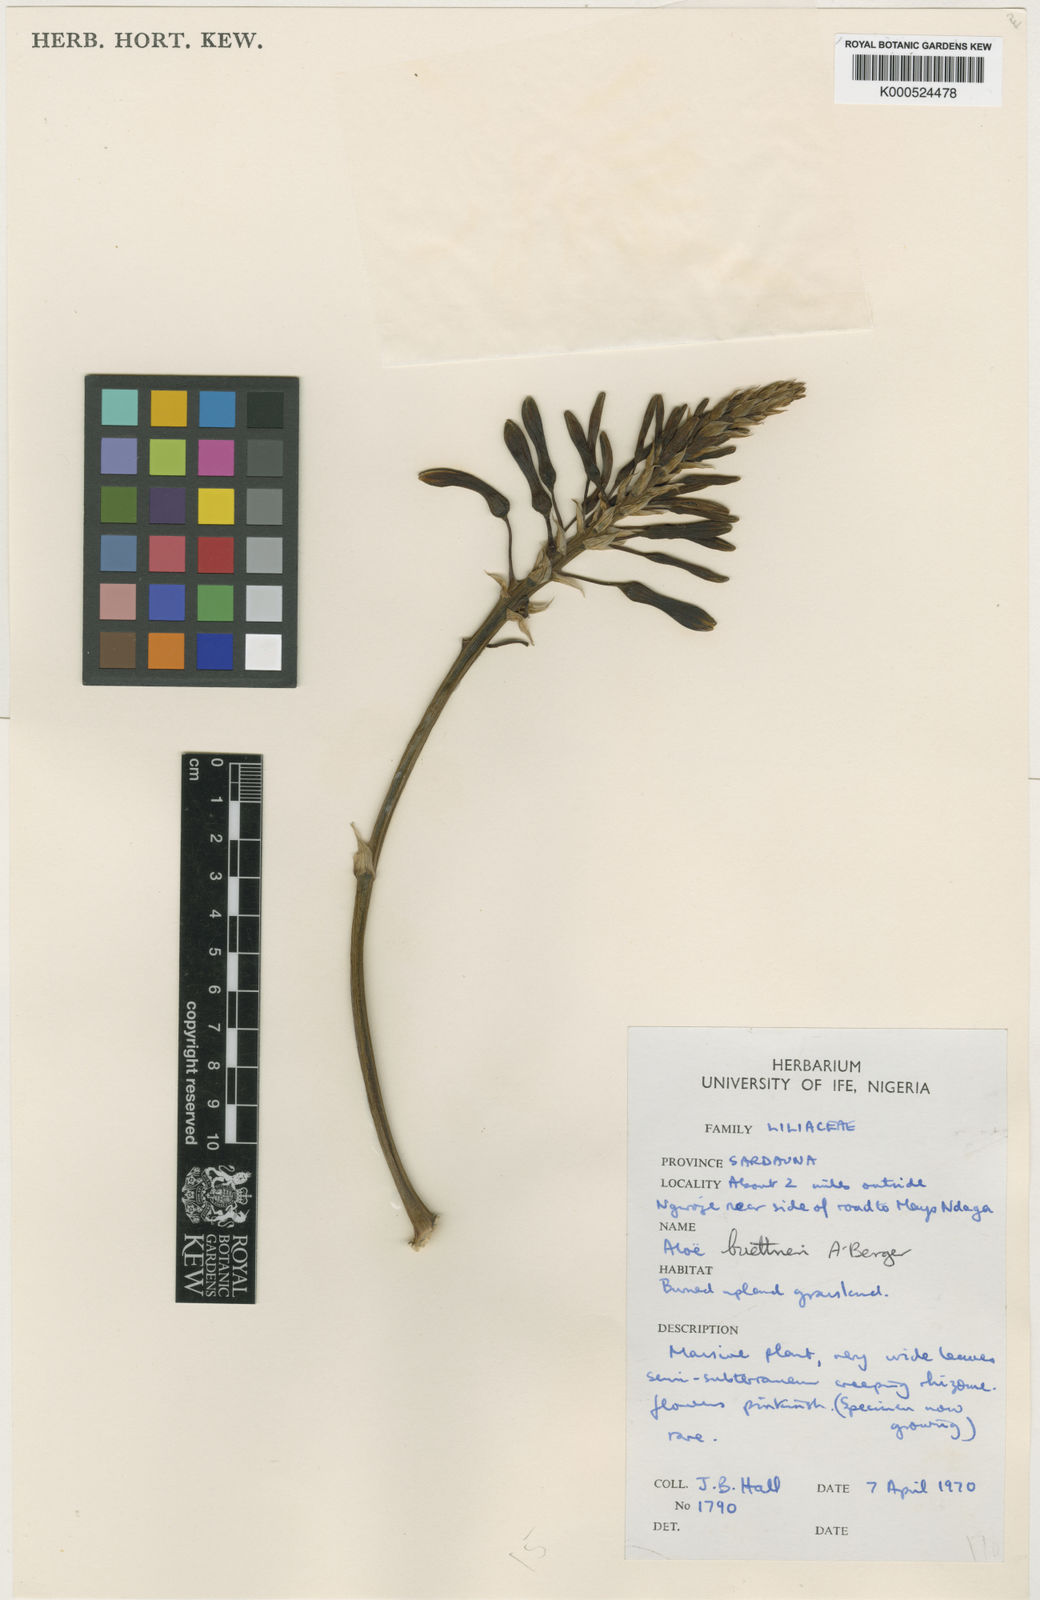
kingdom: Plantae
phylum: Tracheophyta
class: Liliopsida
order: Asparagales
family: Asphodelaceae
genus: Aloe
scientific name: Aloe buettneri
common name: West african aloe
